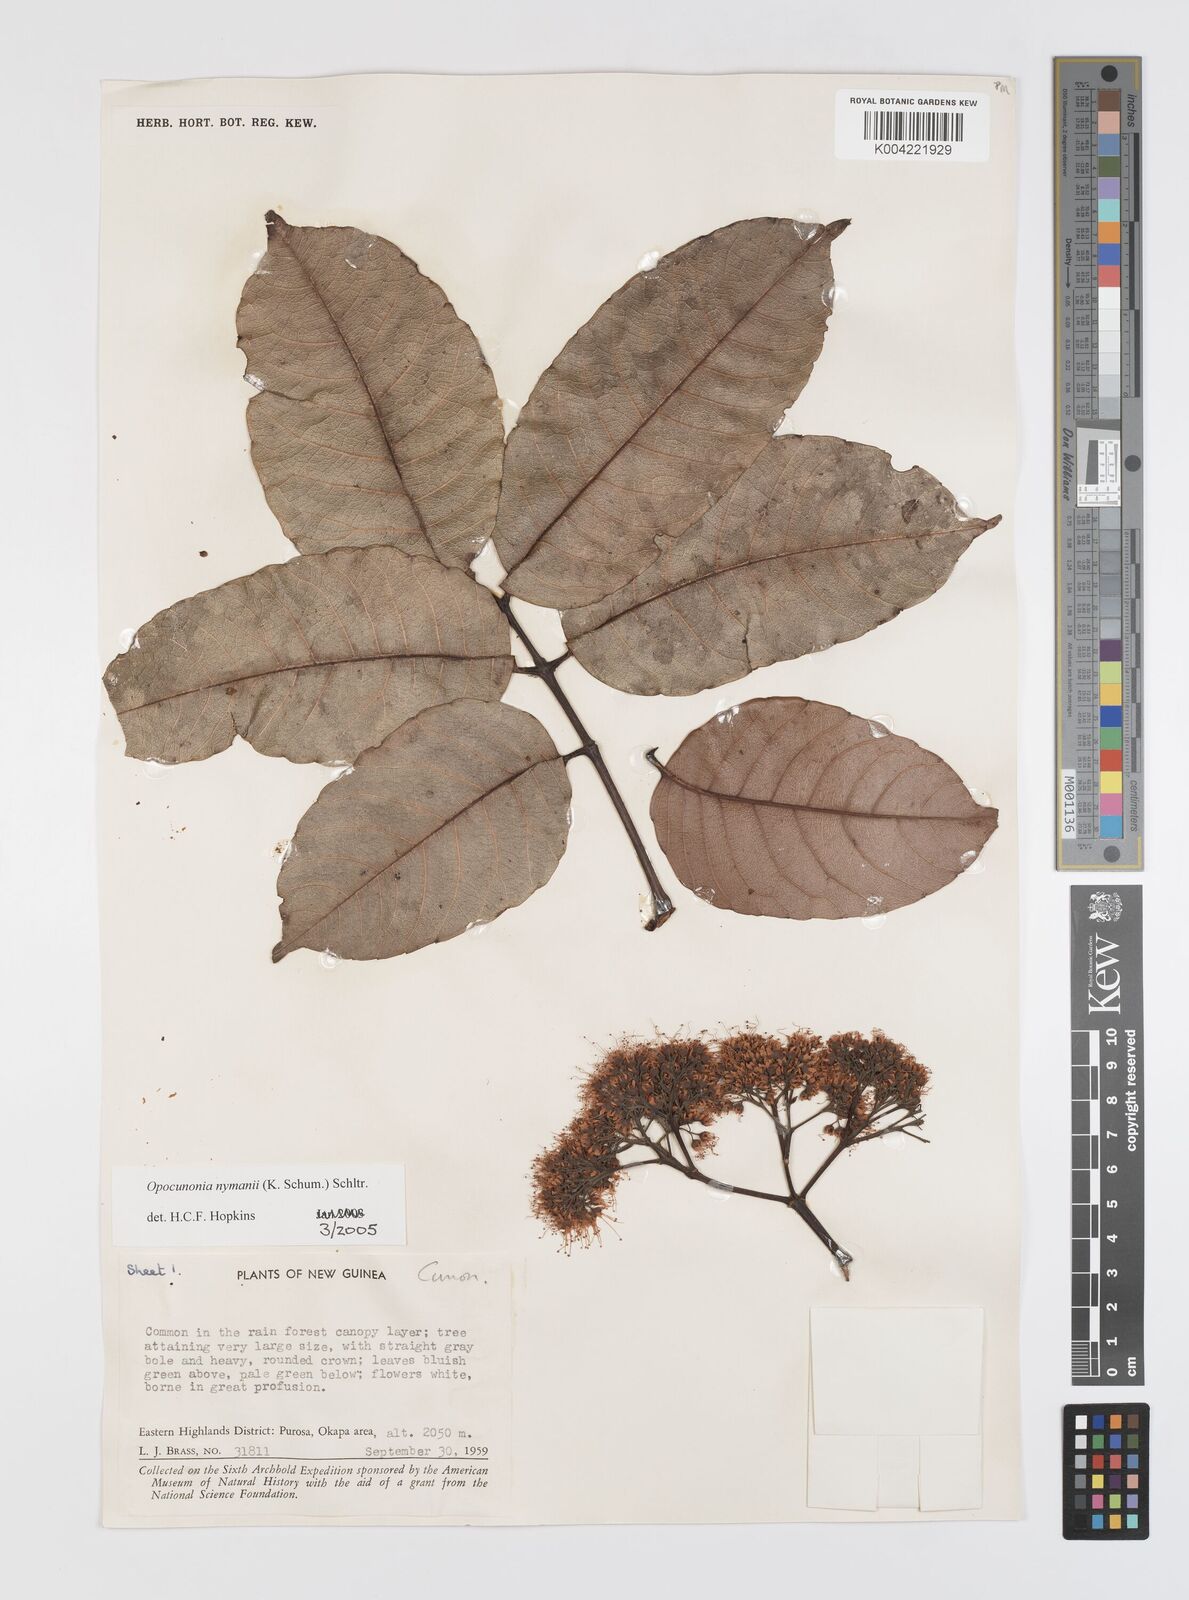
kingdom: Plantae
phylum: Tracheophyta
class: Magnoliopsida
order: Oxalidales
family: Cunoniaceae
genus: Opocunonia
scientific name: Opocunonia nymanii
